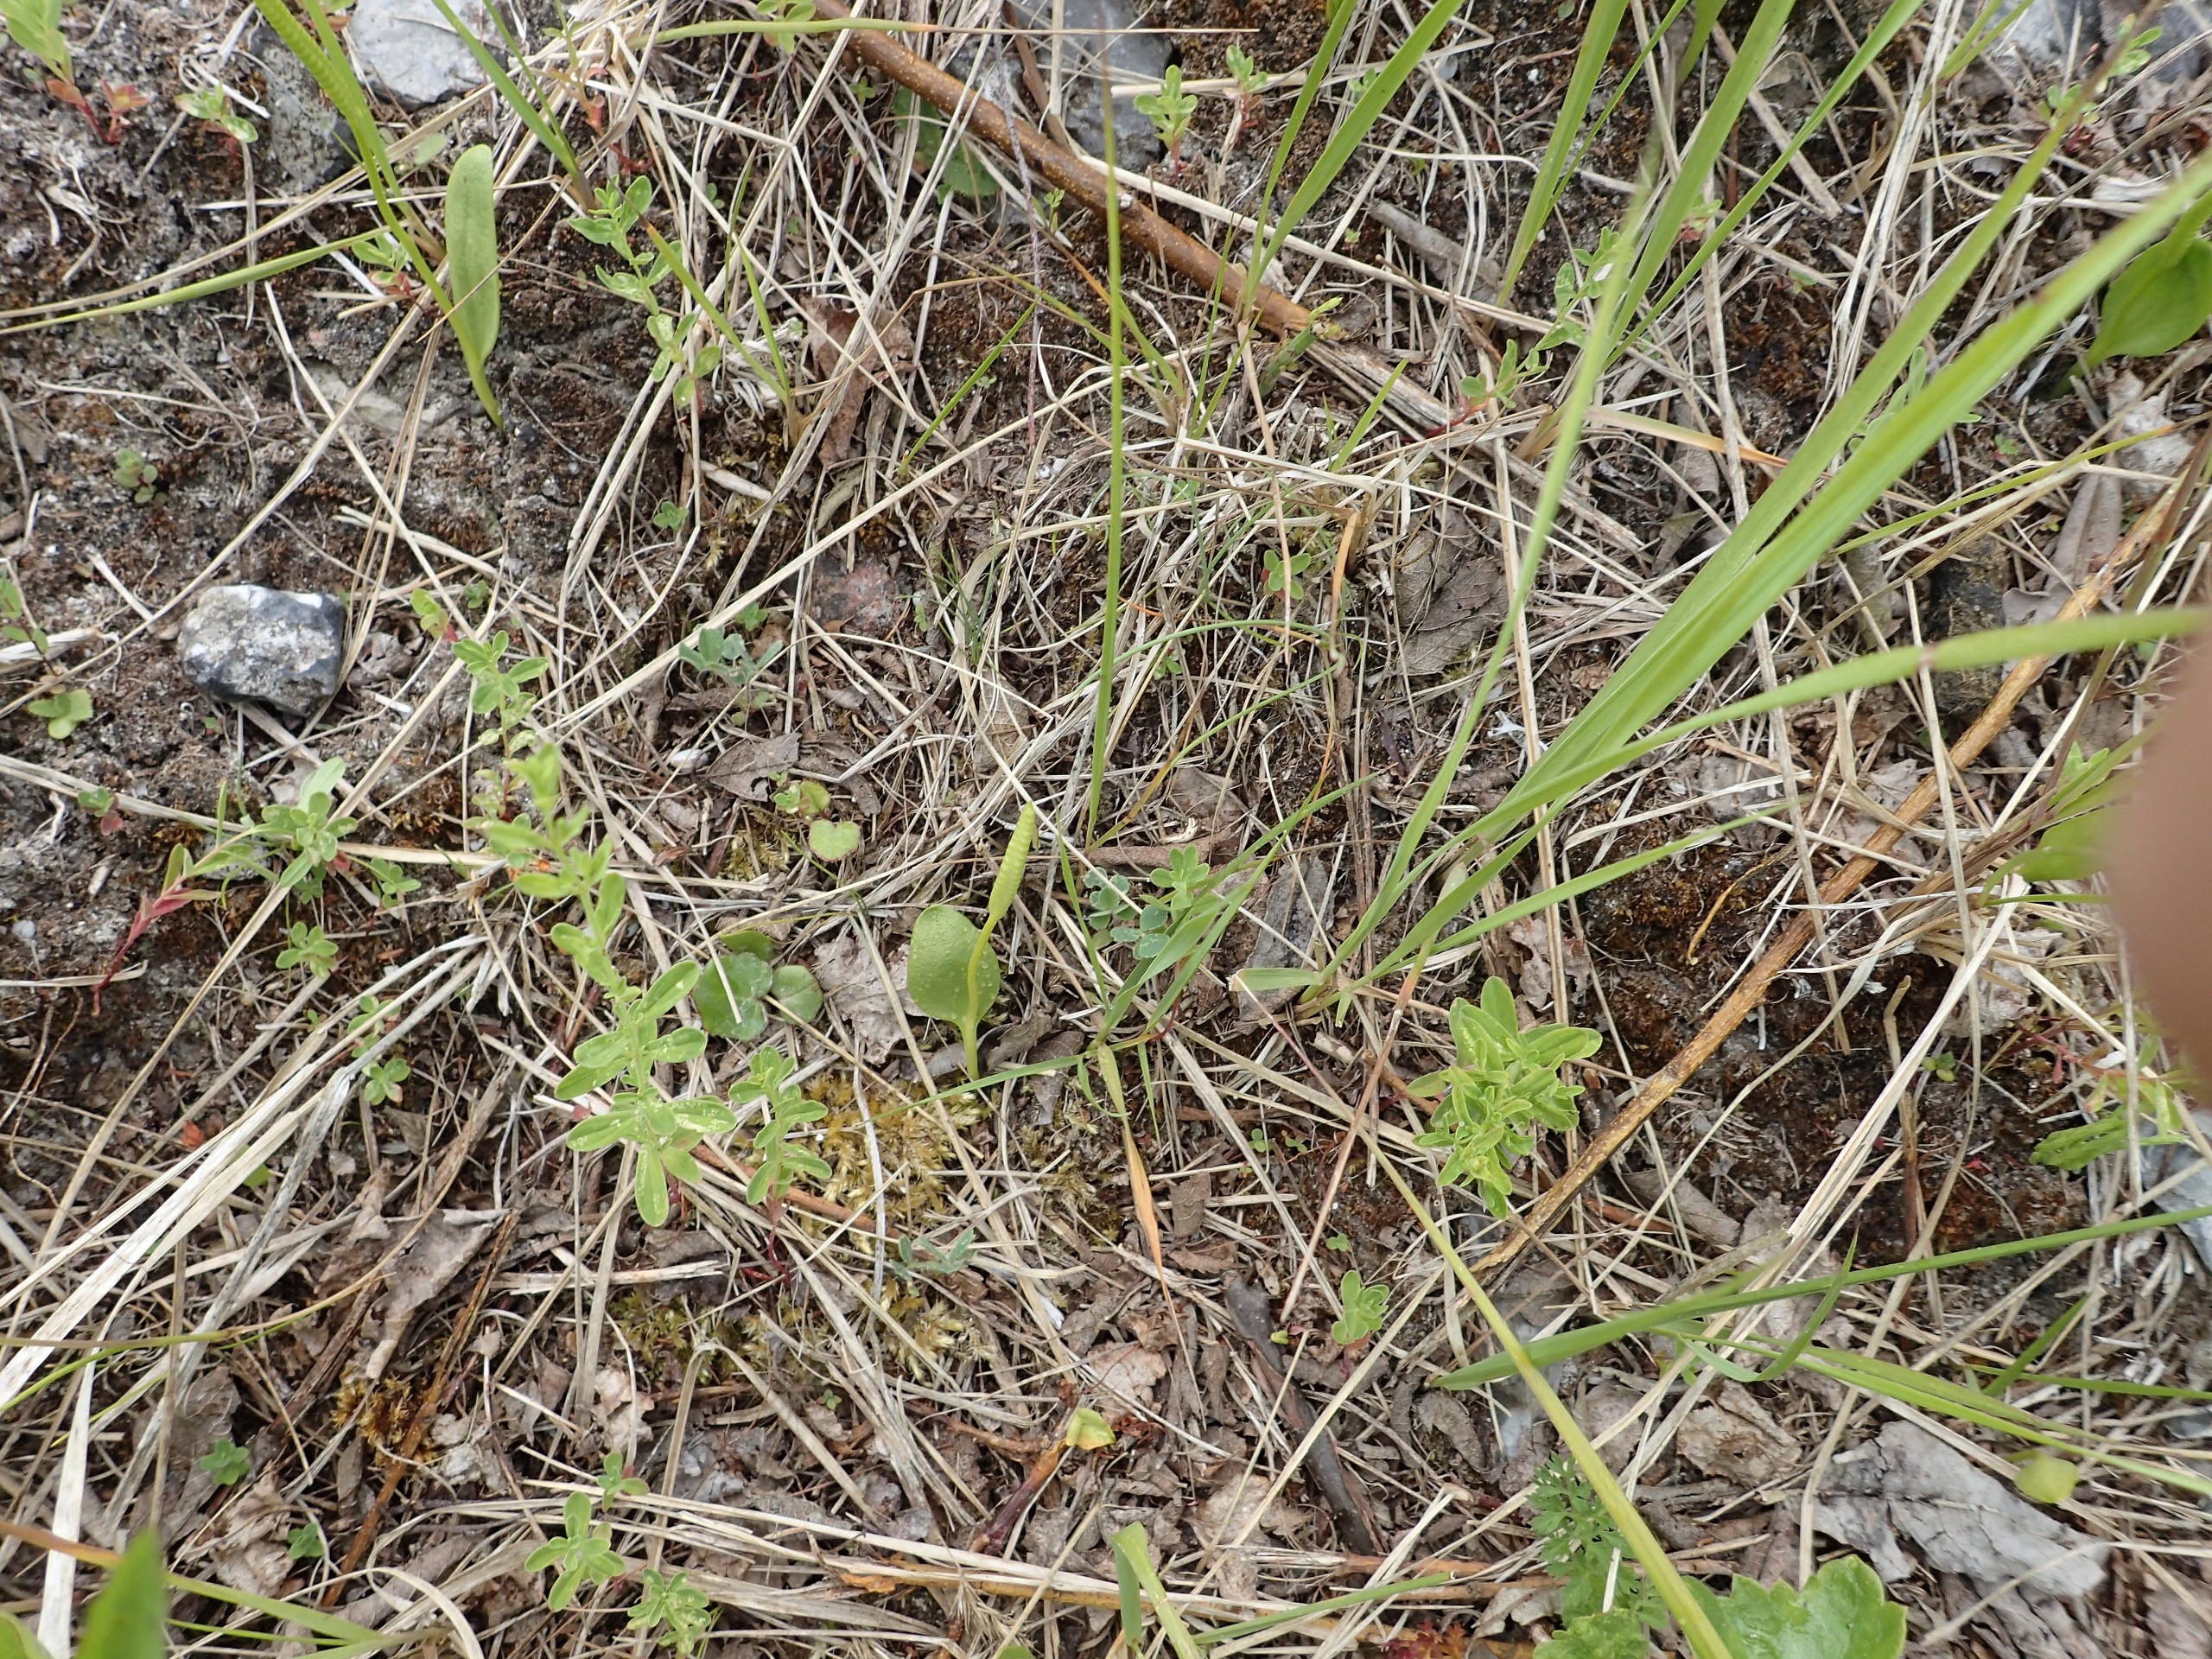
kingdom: Plantae
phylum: Tracheophyta
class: Polypodiopsida
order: Ophioglossales
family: Ophioglossaceae
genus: Ophioglossum
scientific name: Ophioglossum vulgatum
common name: Slangetunge
